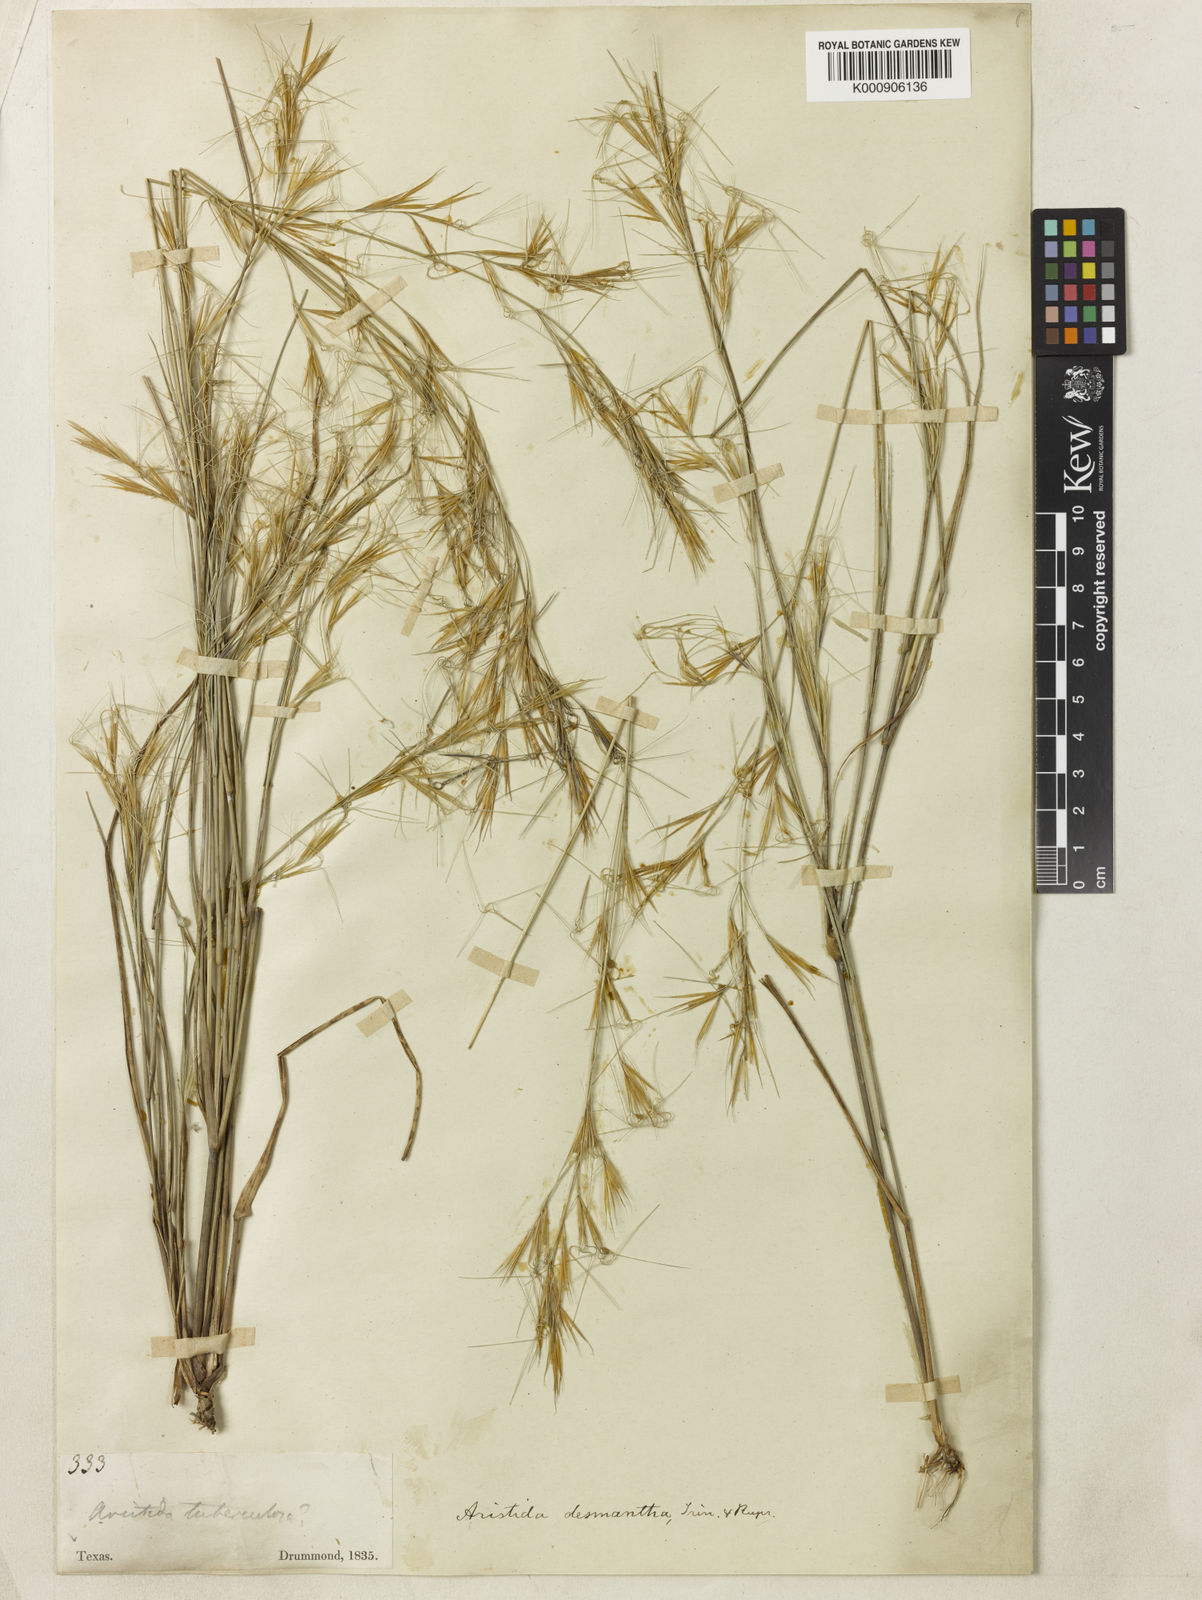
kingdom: Plantae
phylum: Tracheophyta
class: Liliopsida
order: Poales
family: Poaceae
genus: Aristida
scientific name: Aristida desmantha
